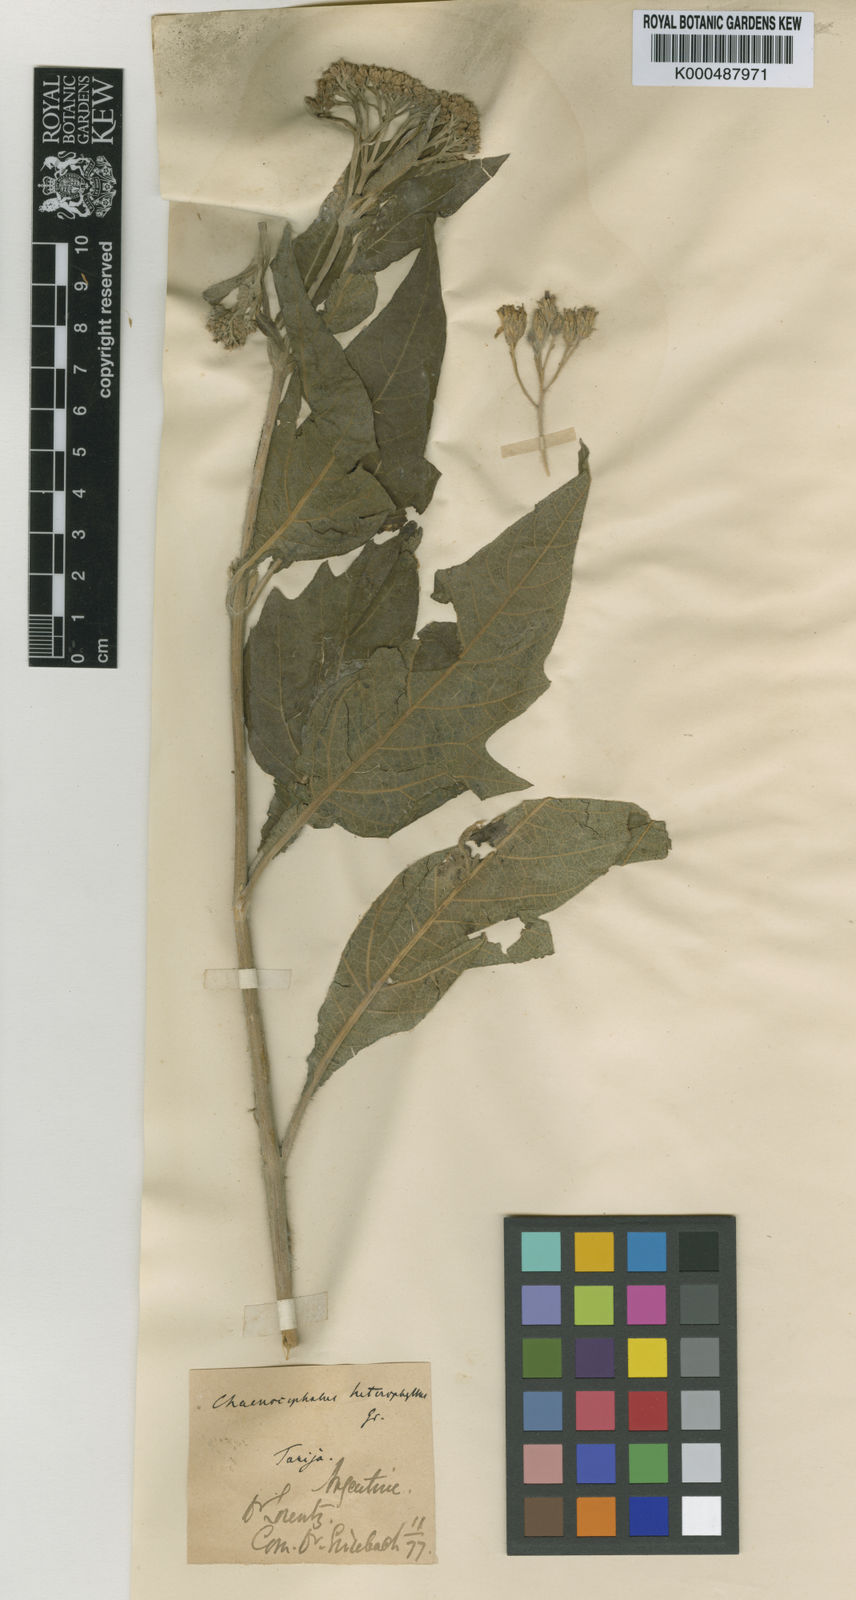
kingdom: Plantae
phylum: Tracheophyta
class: Magnoliopsida
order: Asterales
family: Asteraceae
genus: Verbesina
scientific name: Verbesina heterophylla
